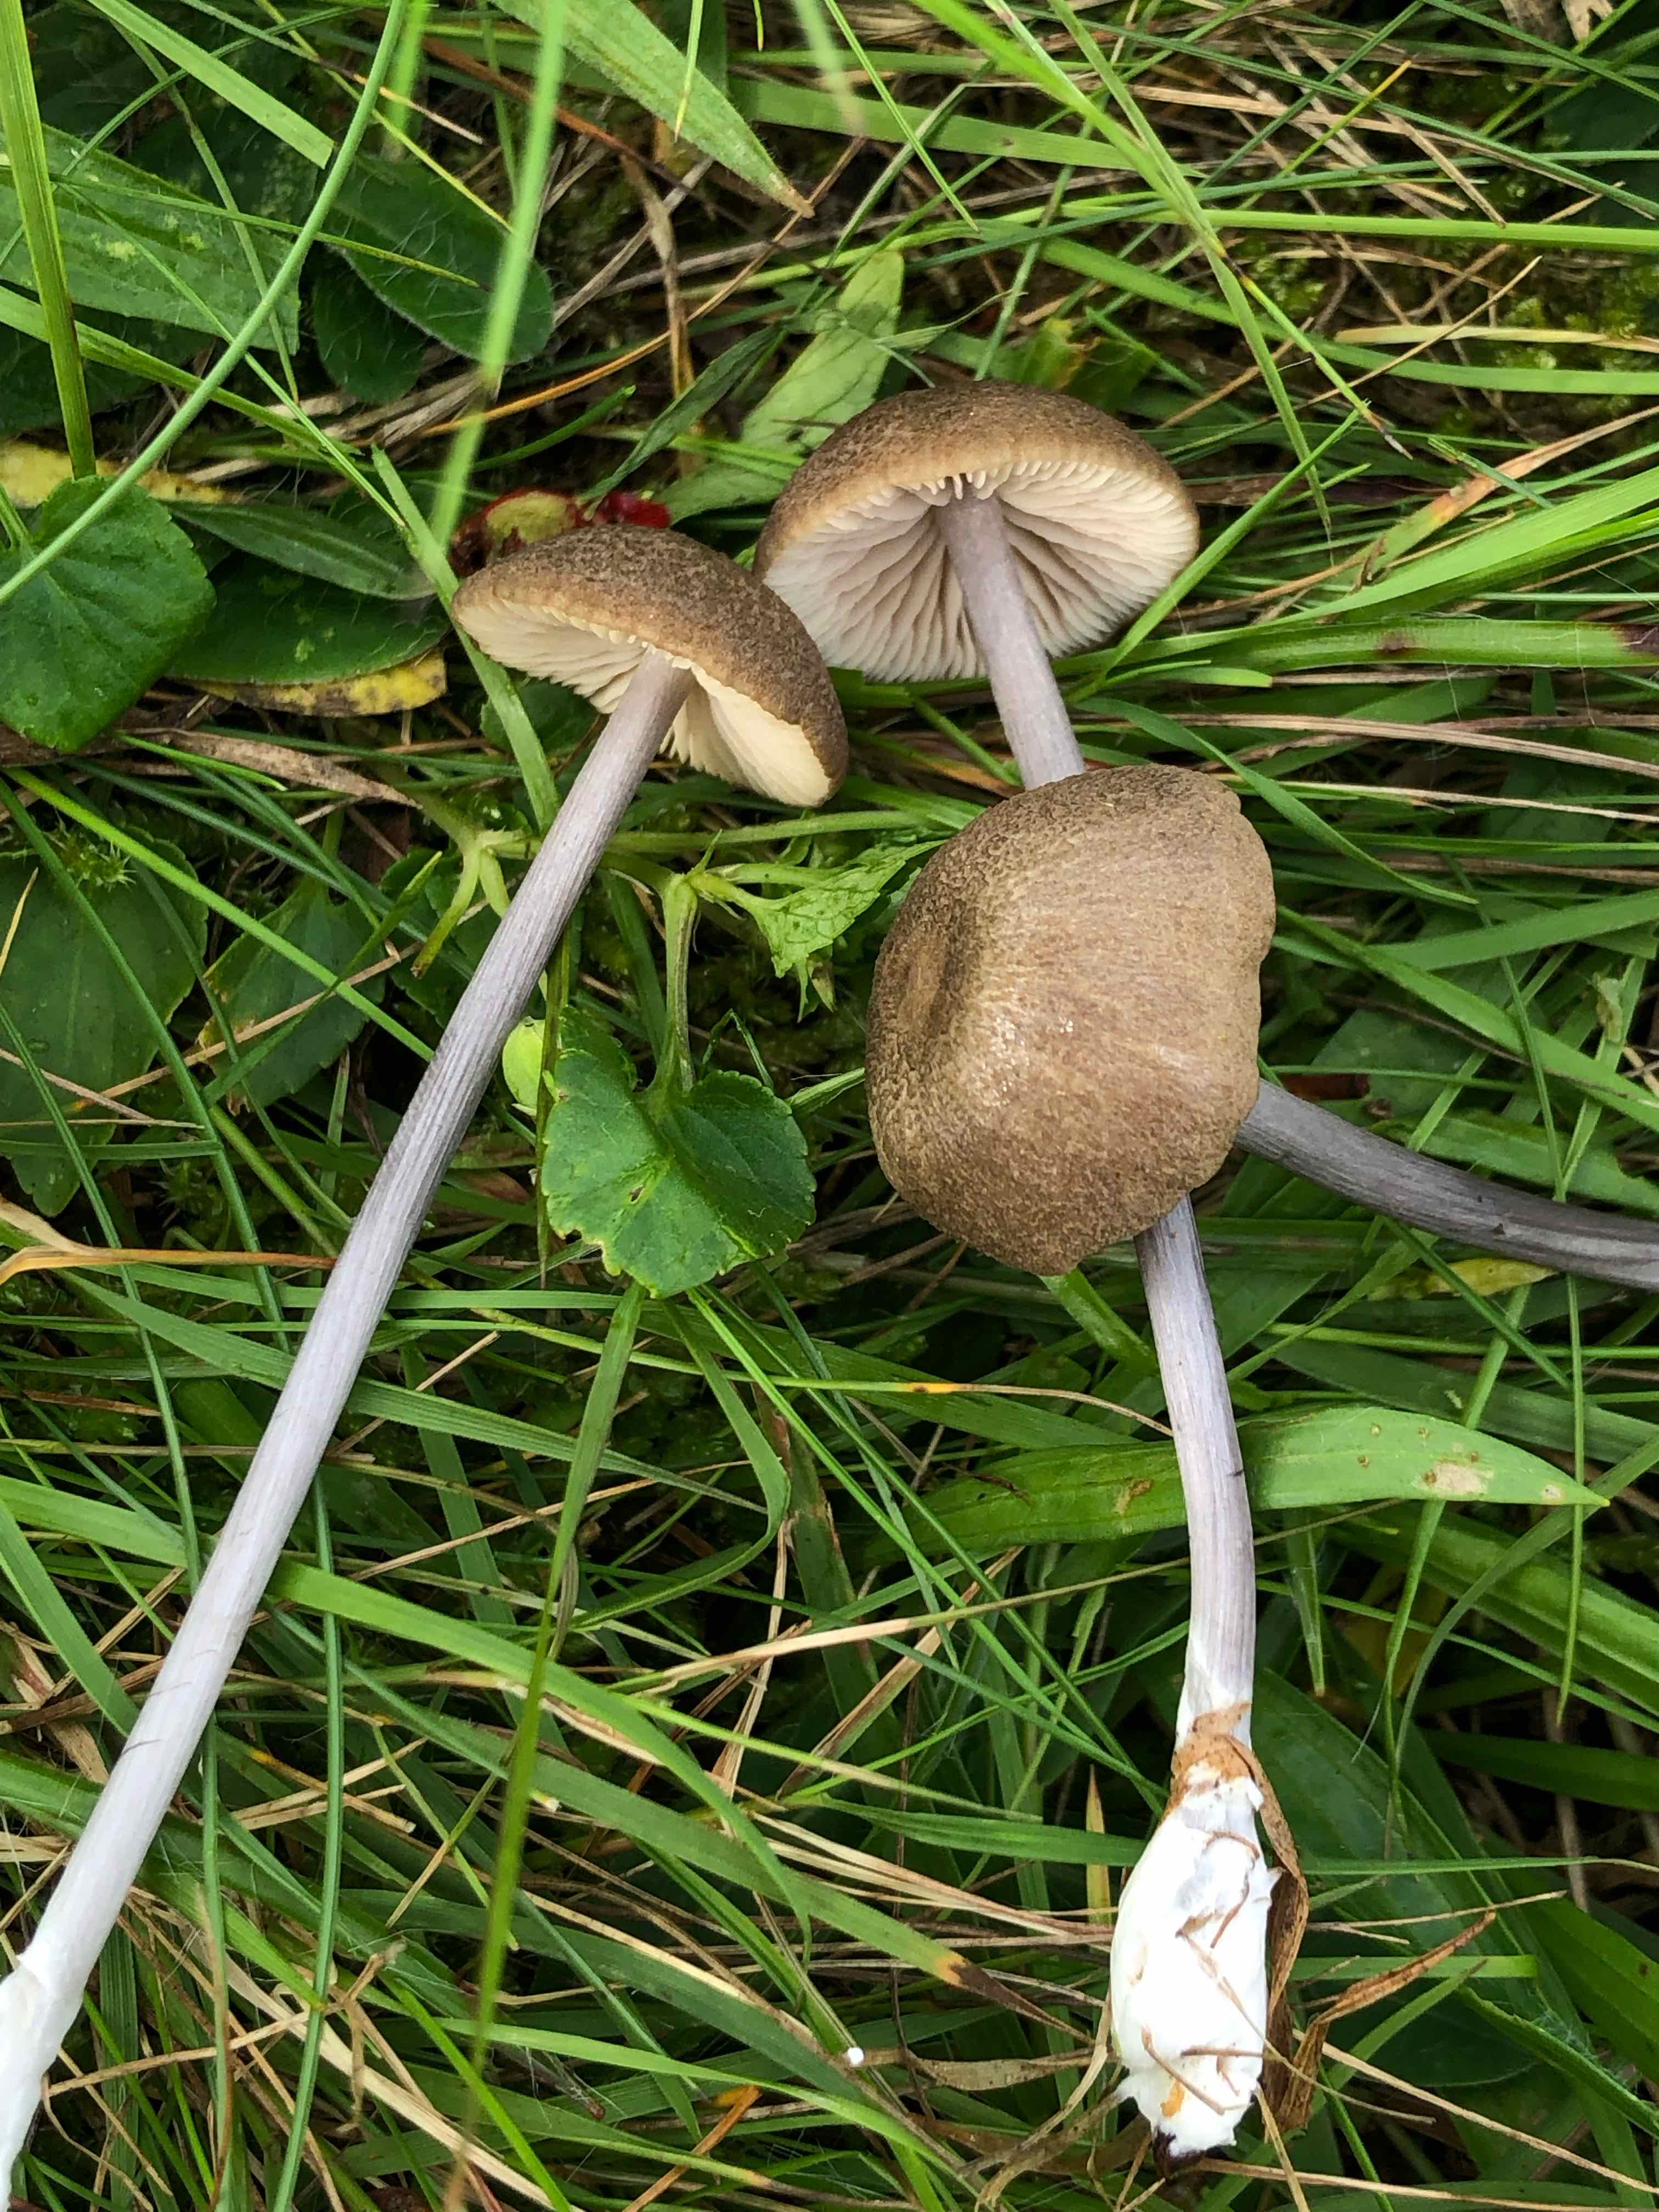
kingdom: Fungi
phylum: Basidiomycota
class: Agaricomycetes
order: Agaricales
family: Entolomataceae
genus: Entoloma
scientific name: Entoloma griseocyaneum
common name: gråblå rødblad
